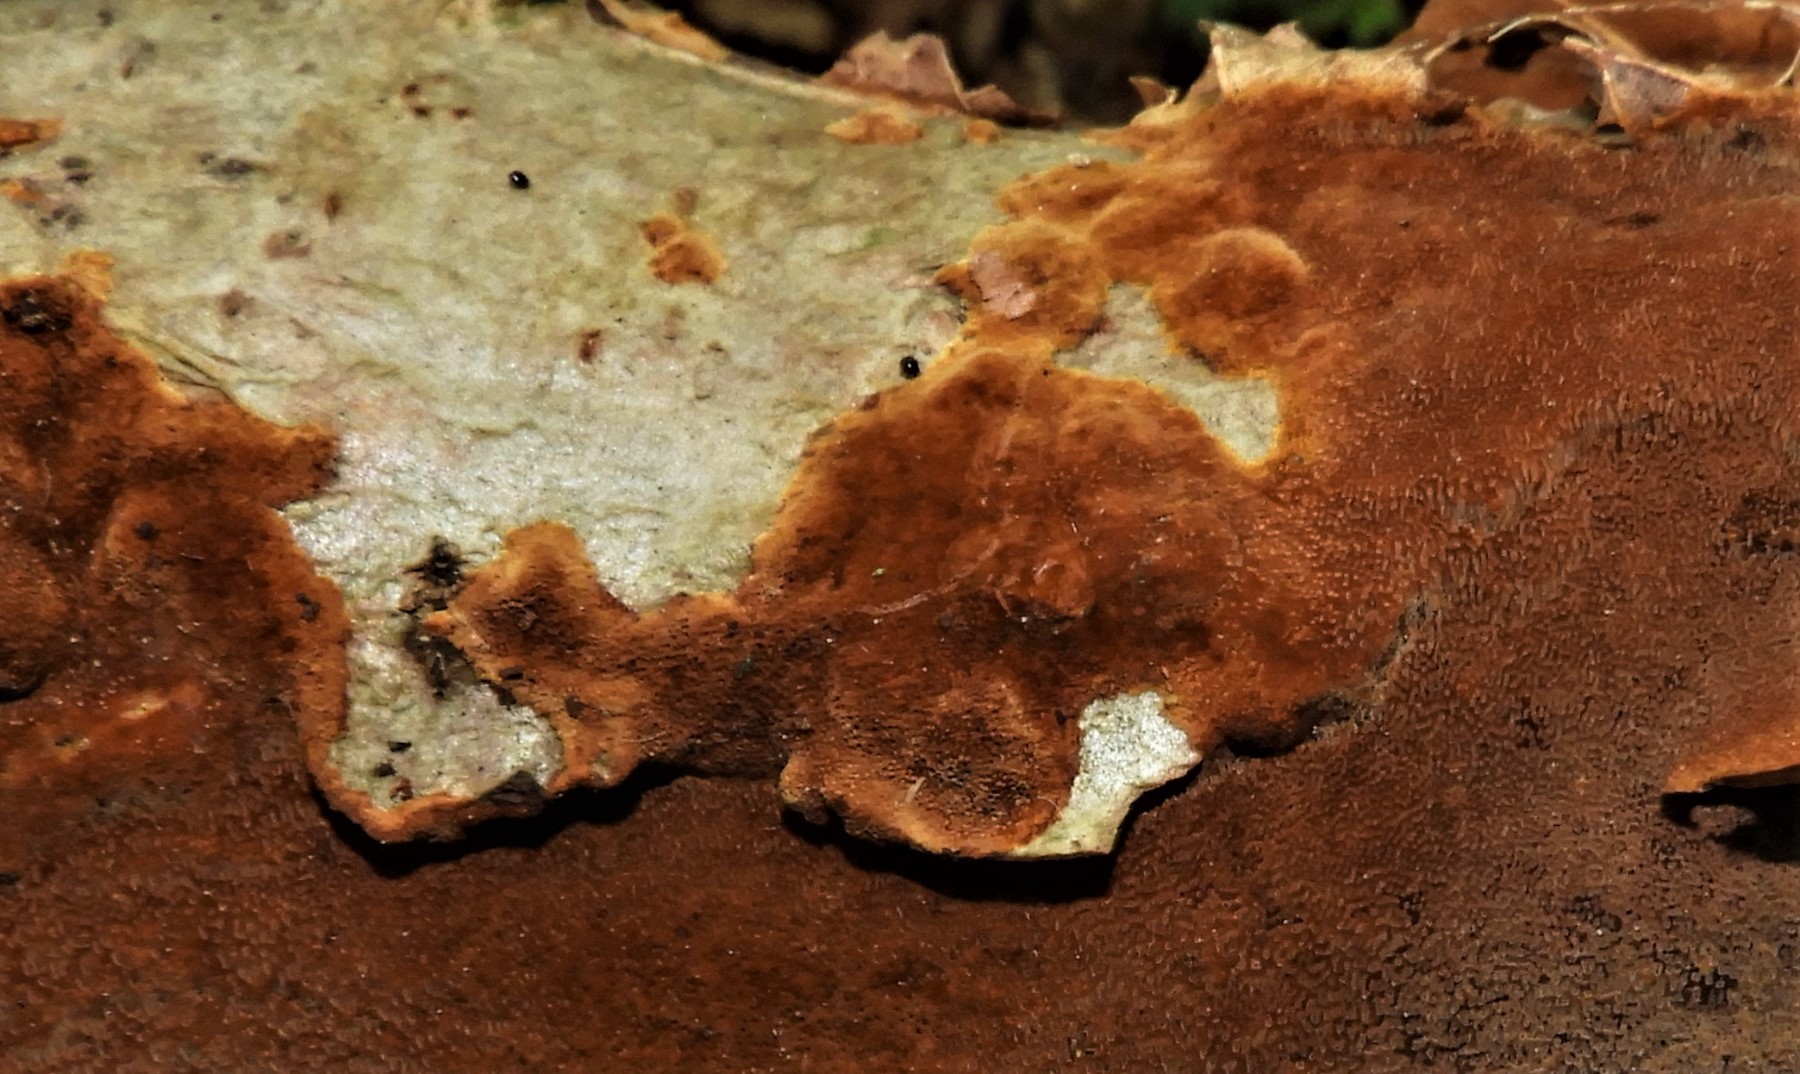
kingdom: Fungi
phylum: Basidiomycota
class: Agaricomycetes
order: Hymenochaetales
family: Hymenochaetaceae
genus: Fuscoporia
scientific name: Fuscoporia ferrea
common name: skorpe-ildporesvamp
